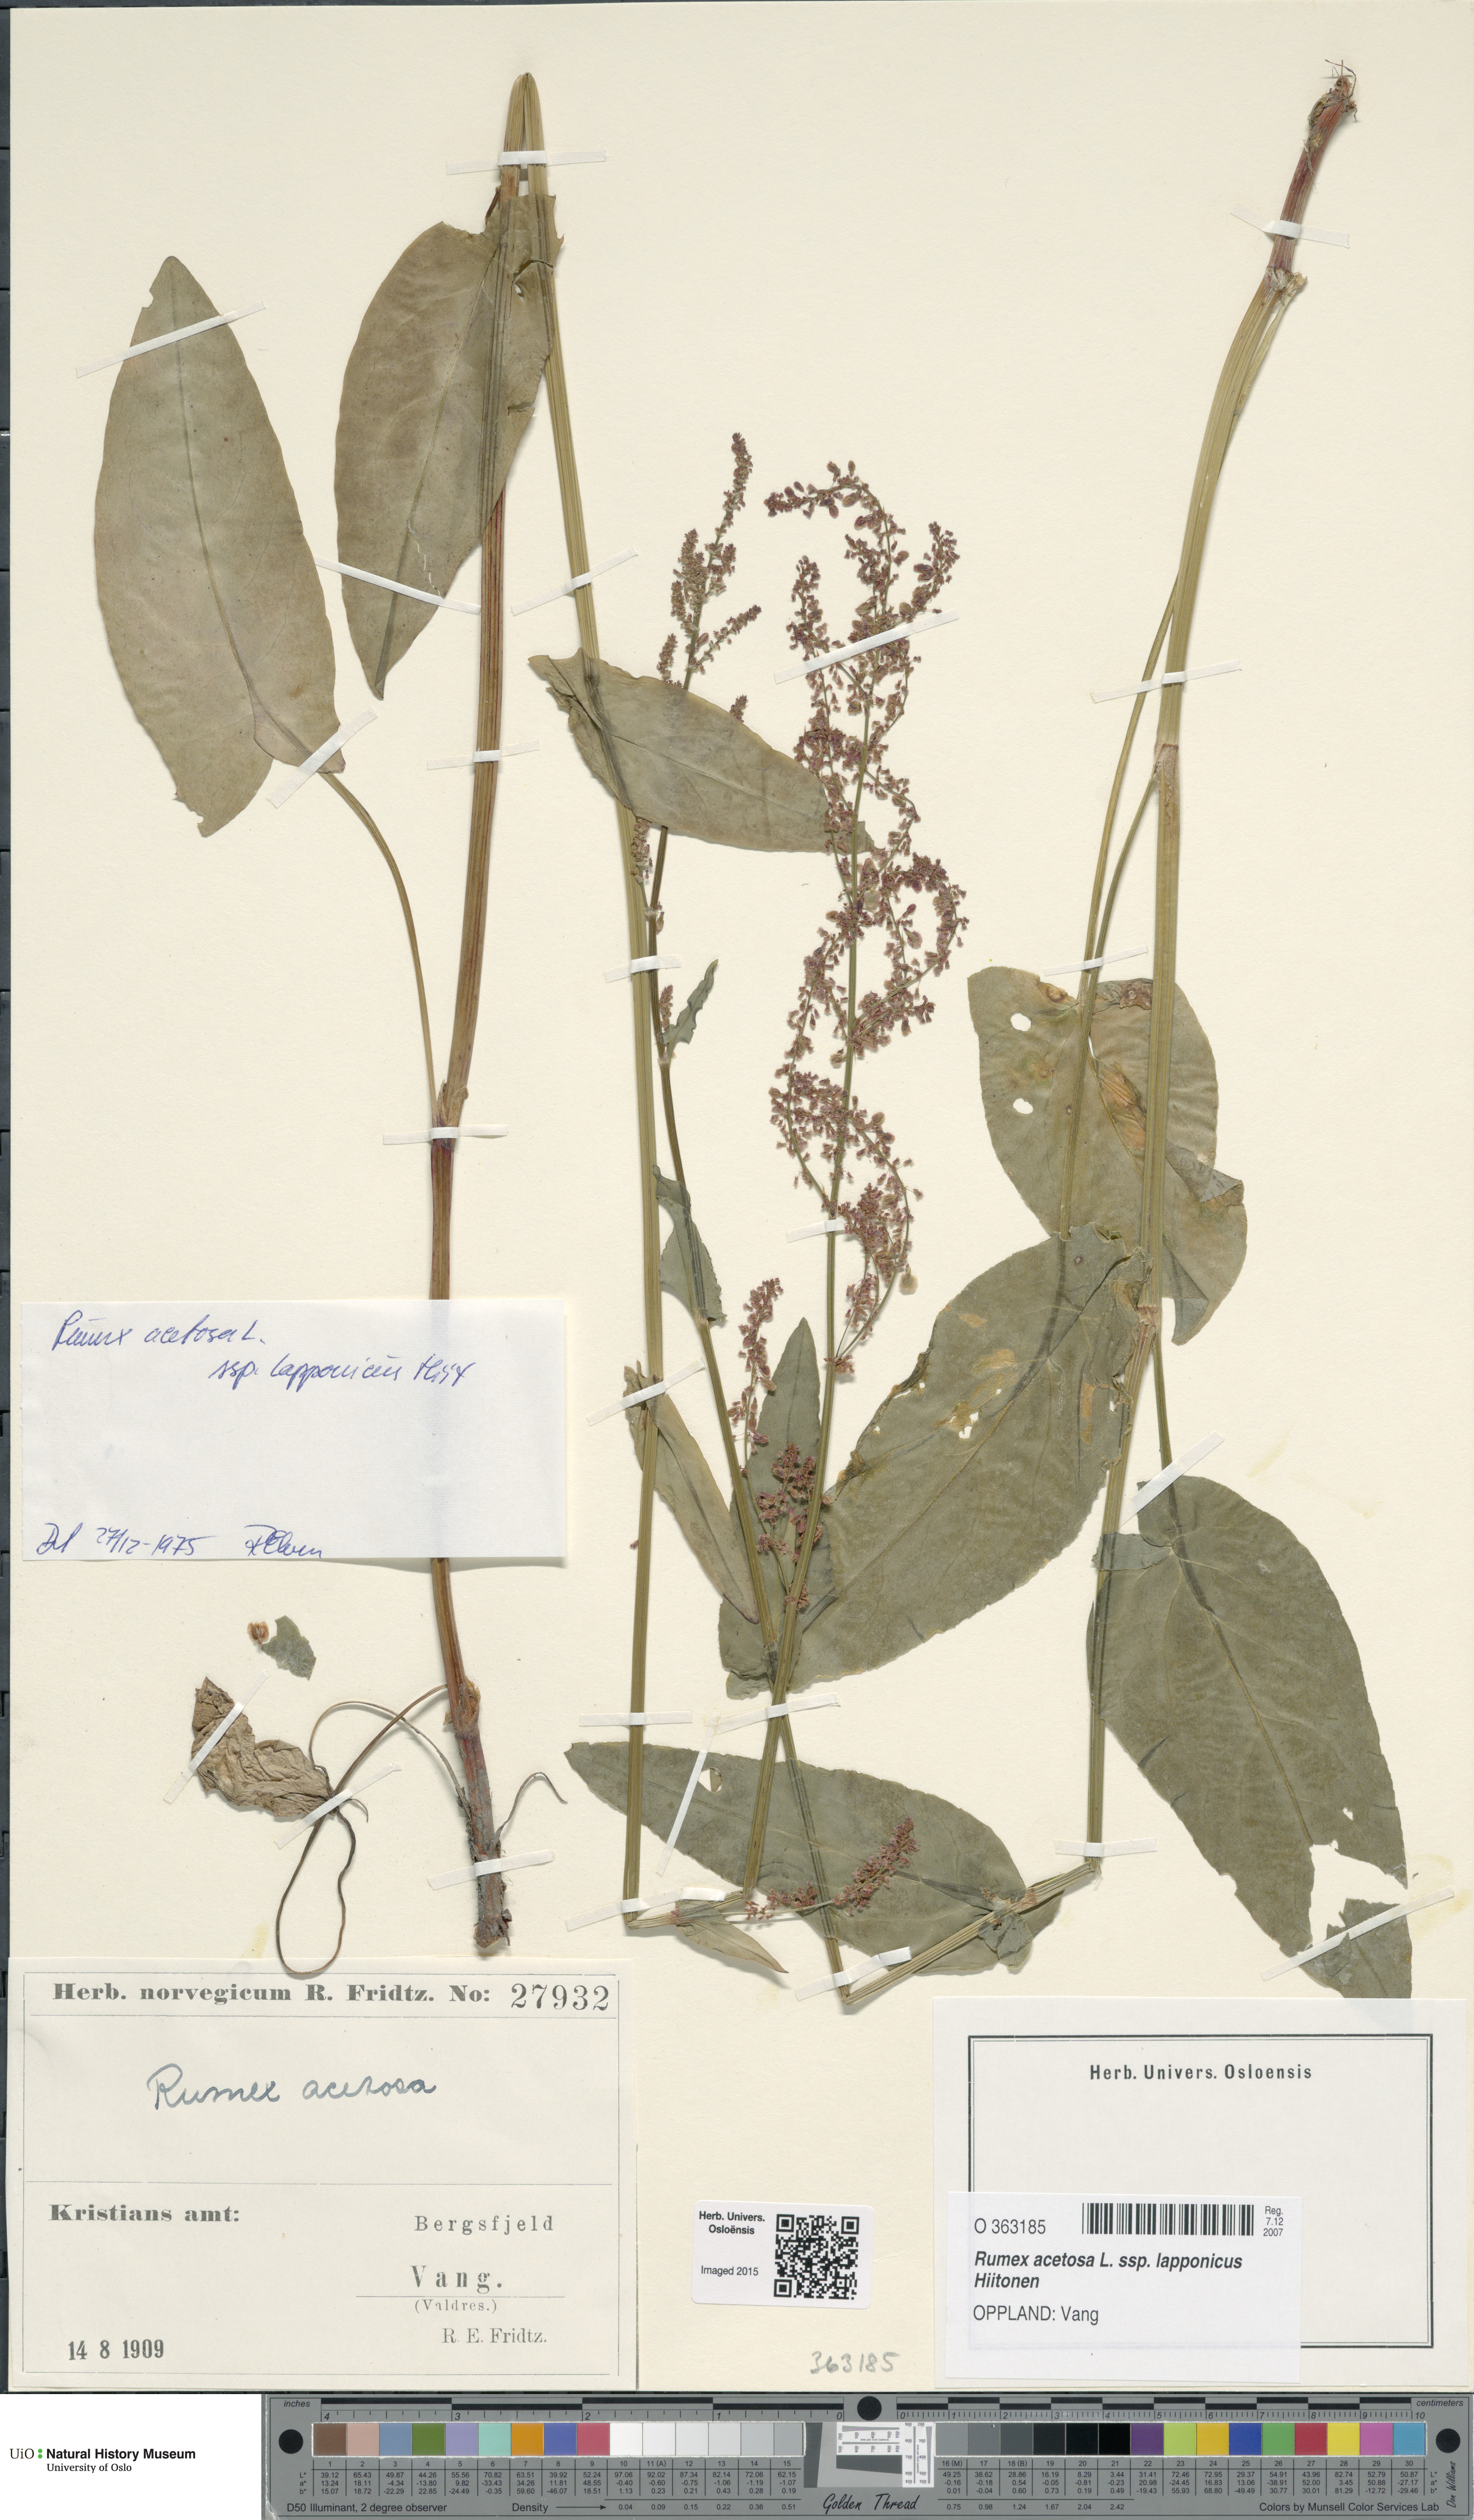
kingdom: Plantae
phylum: Tracheophyta
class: Magnoliopsida
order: Caryophyllales
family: Polygonaceae
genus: Rumex
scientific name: Rumex lapponicus
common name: Lapland mountain sorrel
